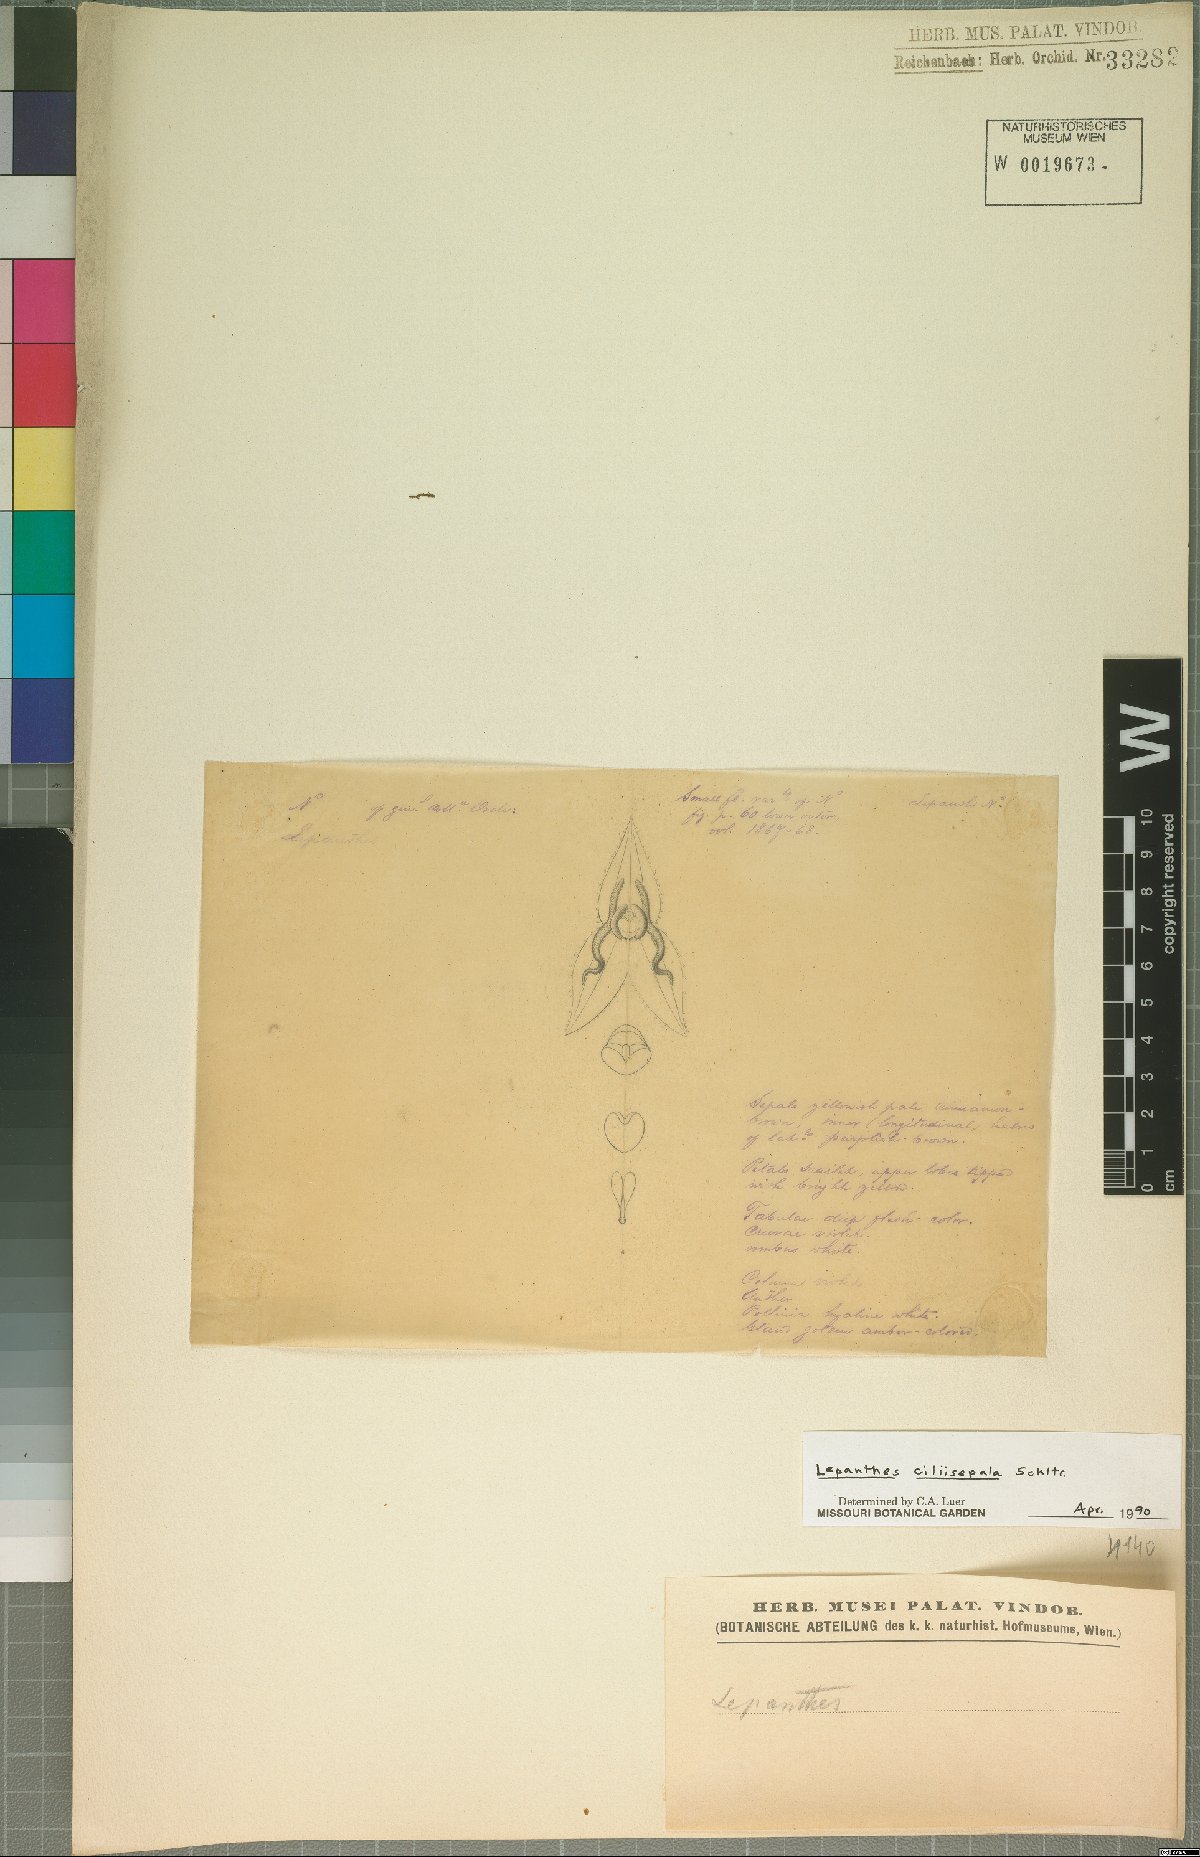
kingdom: Plantae
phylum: Tracheophyta
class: Liliopsida
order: Asparagales
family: Orchidaceae
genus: Lepanthes
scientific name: Lepanthes ciliisepala
